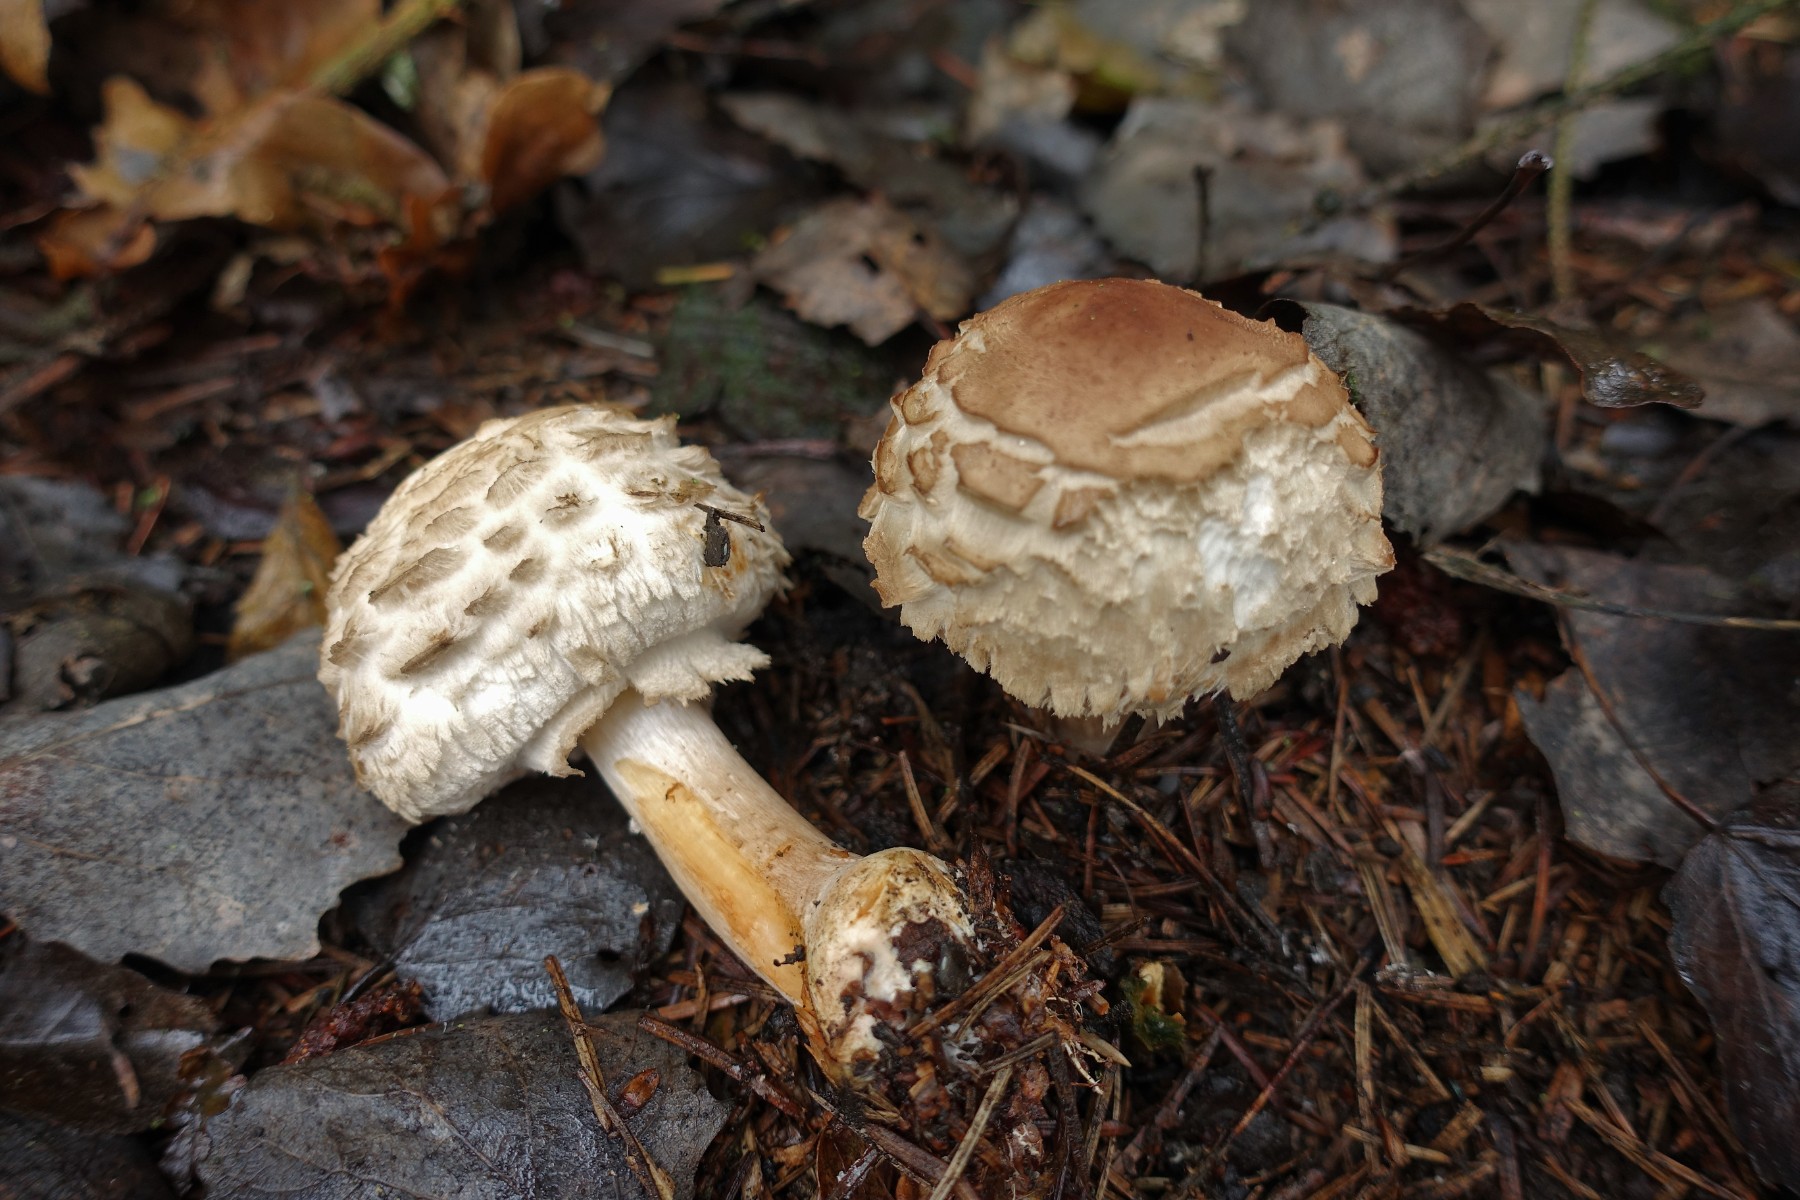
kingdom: Fungi
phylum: Basidiomycota
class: Agaricomycetes
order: Agaricales
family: Agaricaceae
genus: Chlorophyllum
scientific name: Chlorophyllum olivieri
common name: almindelig rabarberhat
